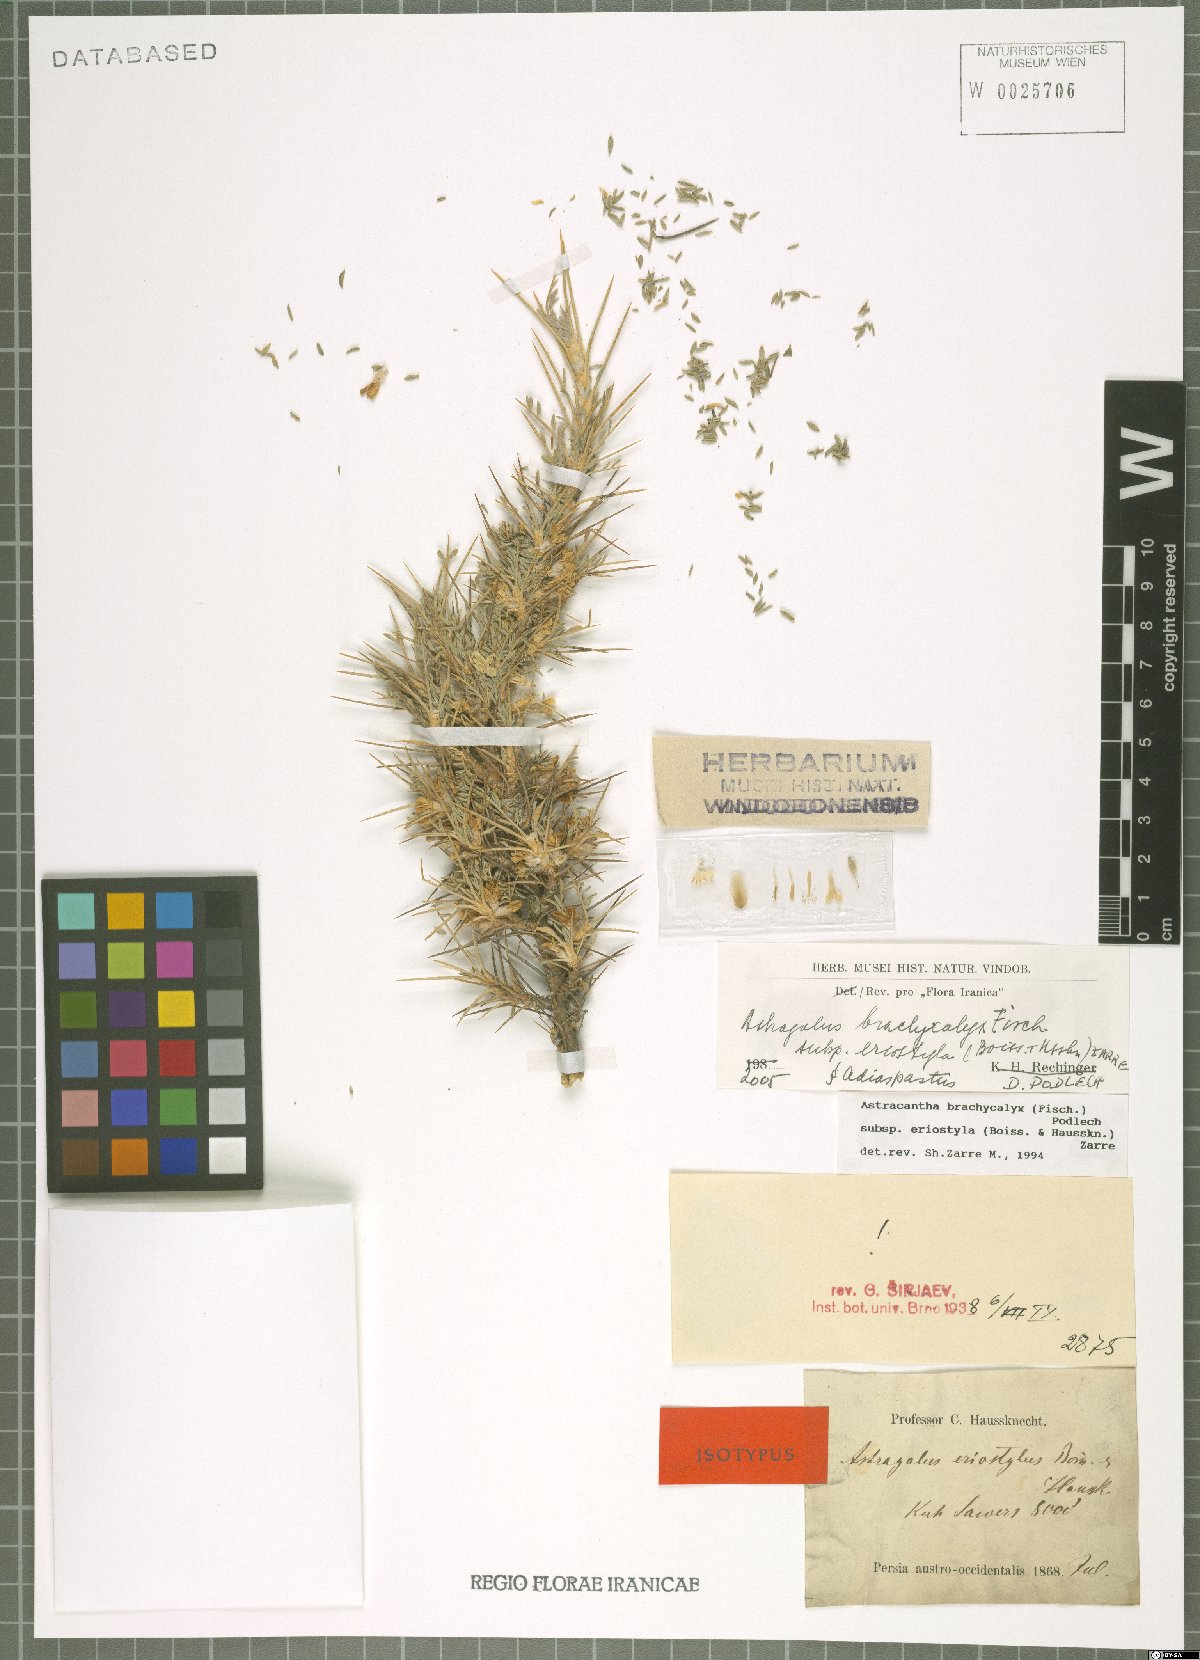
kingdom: Plantae
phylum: Tracheophyta
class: Magnoliopsida
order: Fabales
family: Fabaceae
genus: Astragalus
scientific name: Astragalus brachycalyx
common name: Persian manna
